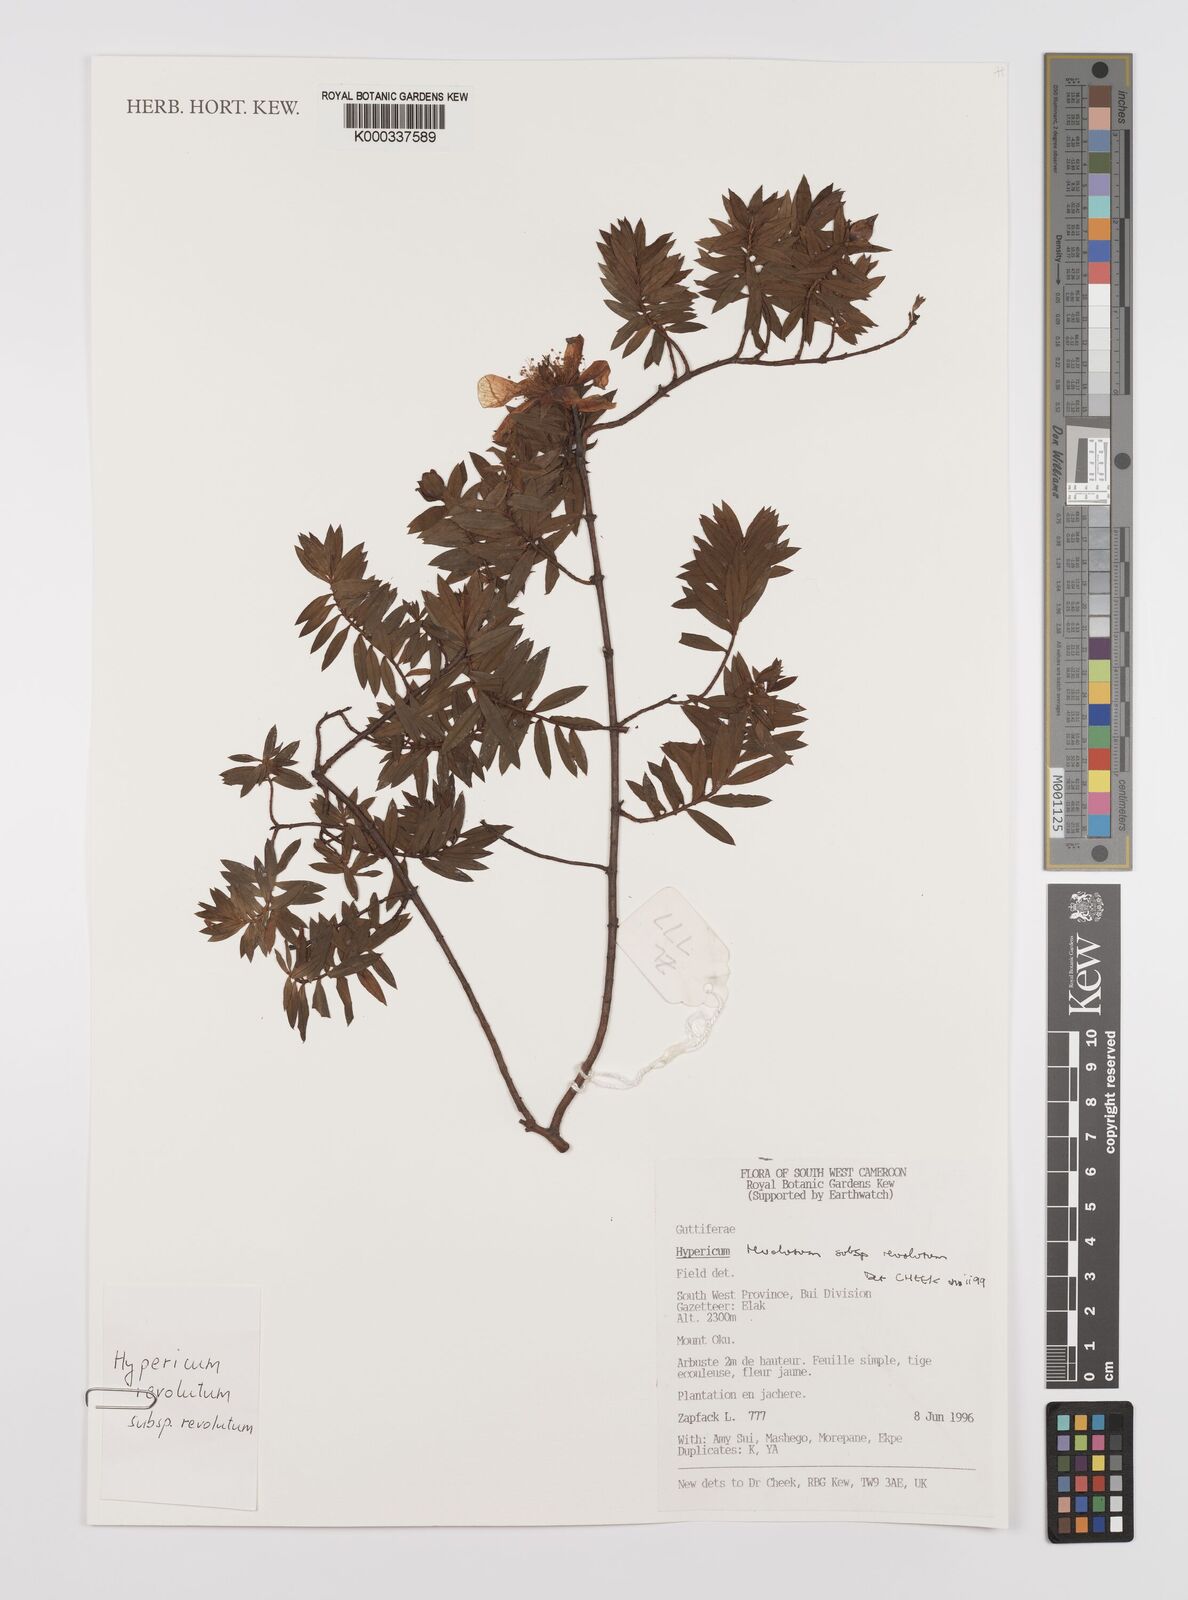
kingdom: Plantae
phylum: Tracheophyta
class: Magnoliopsida
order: Malpighiales
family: Hypericaceae
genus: Hypericum
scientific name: Hypericum revolutum
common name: Curry bush
